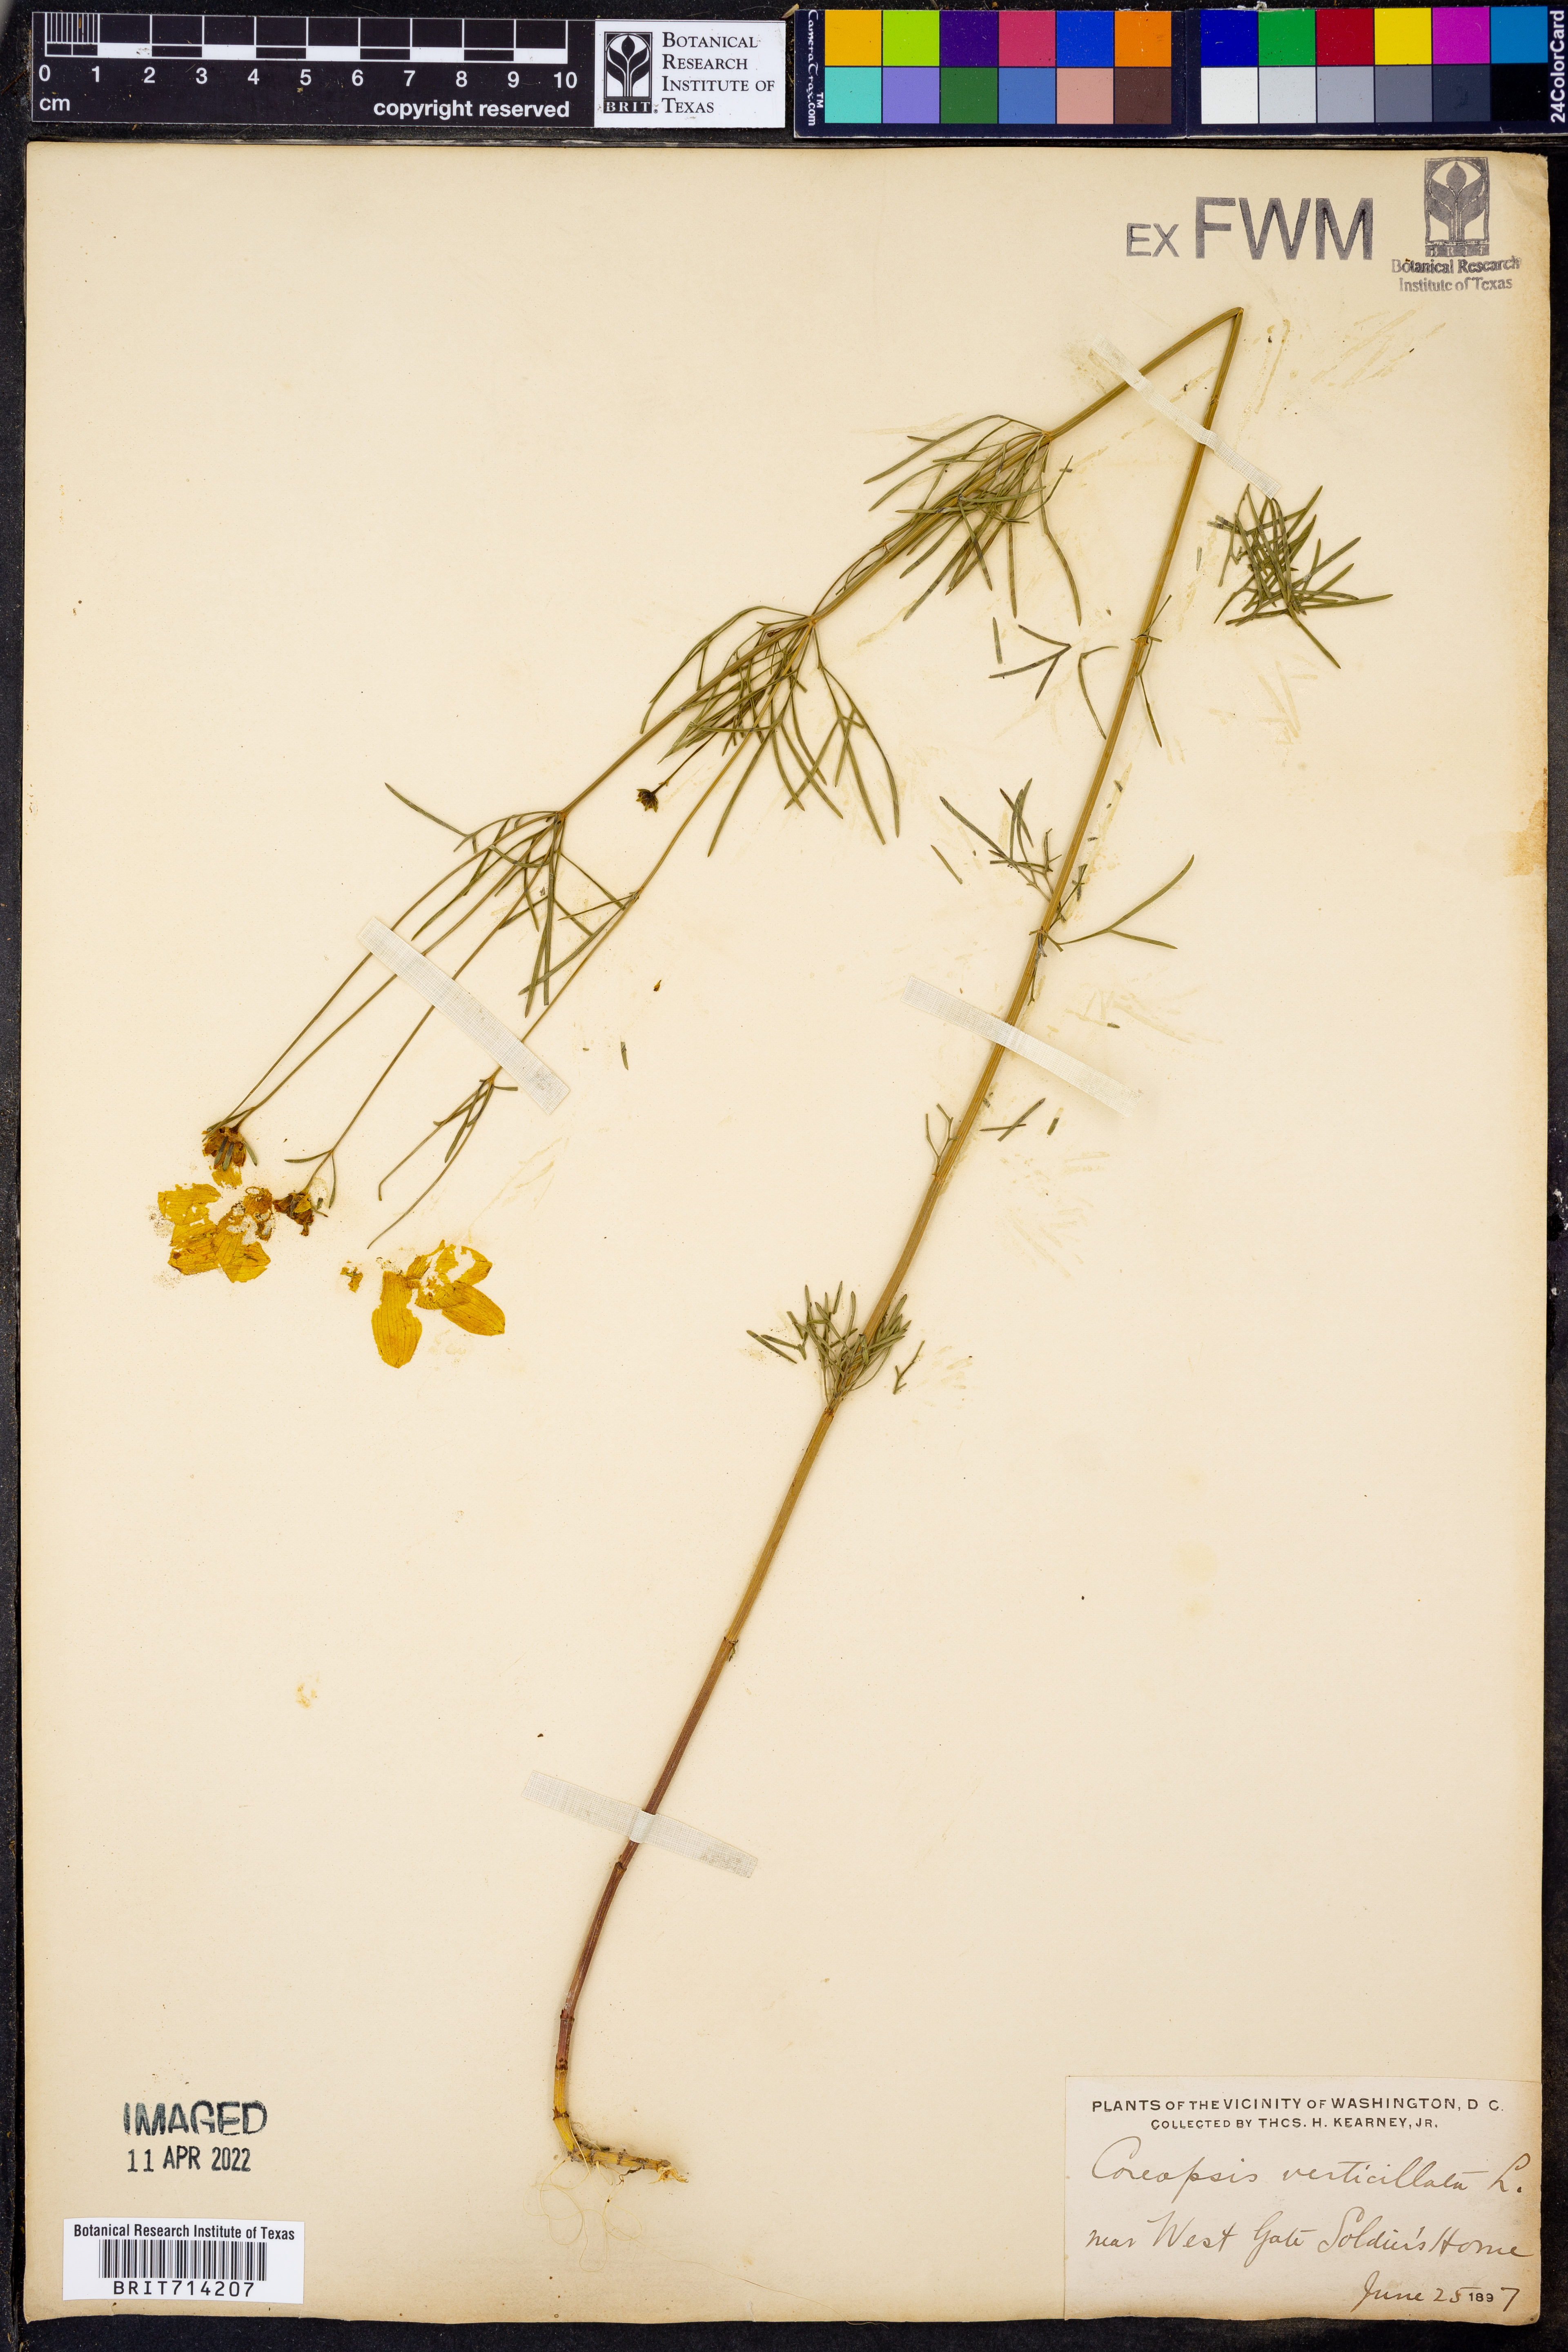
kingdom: Plantae
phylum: Tracheophyta
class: Magnoliopsida
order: Asterales
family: Asteraceae
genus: Coreopsis
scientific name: Coreopsis verticillata
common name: Whorled tickseed
